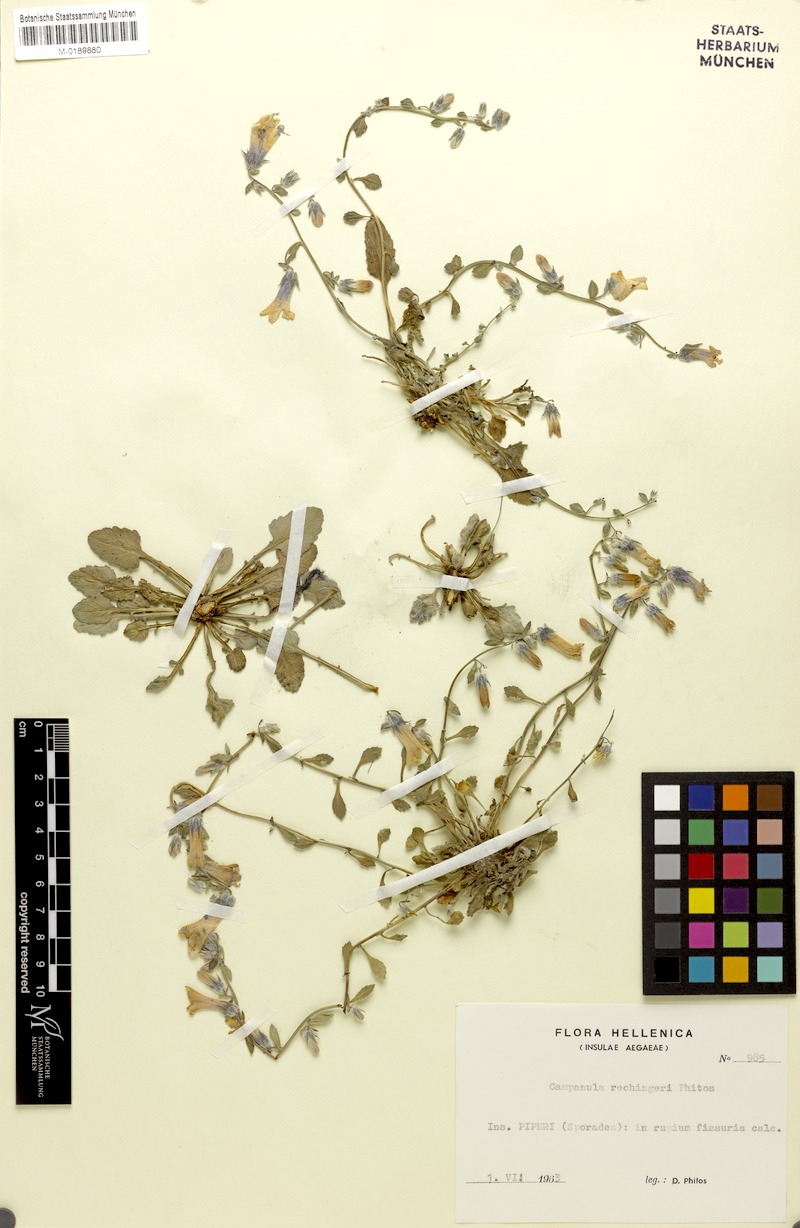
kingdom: Plantae
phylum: Tracheophyta
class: Magnoliopsida
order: Asterales
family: Campanulaceae
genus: Campanula
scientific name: Campanula rechingeri
